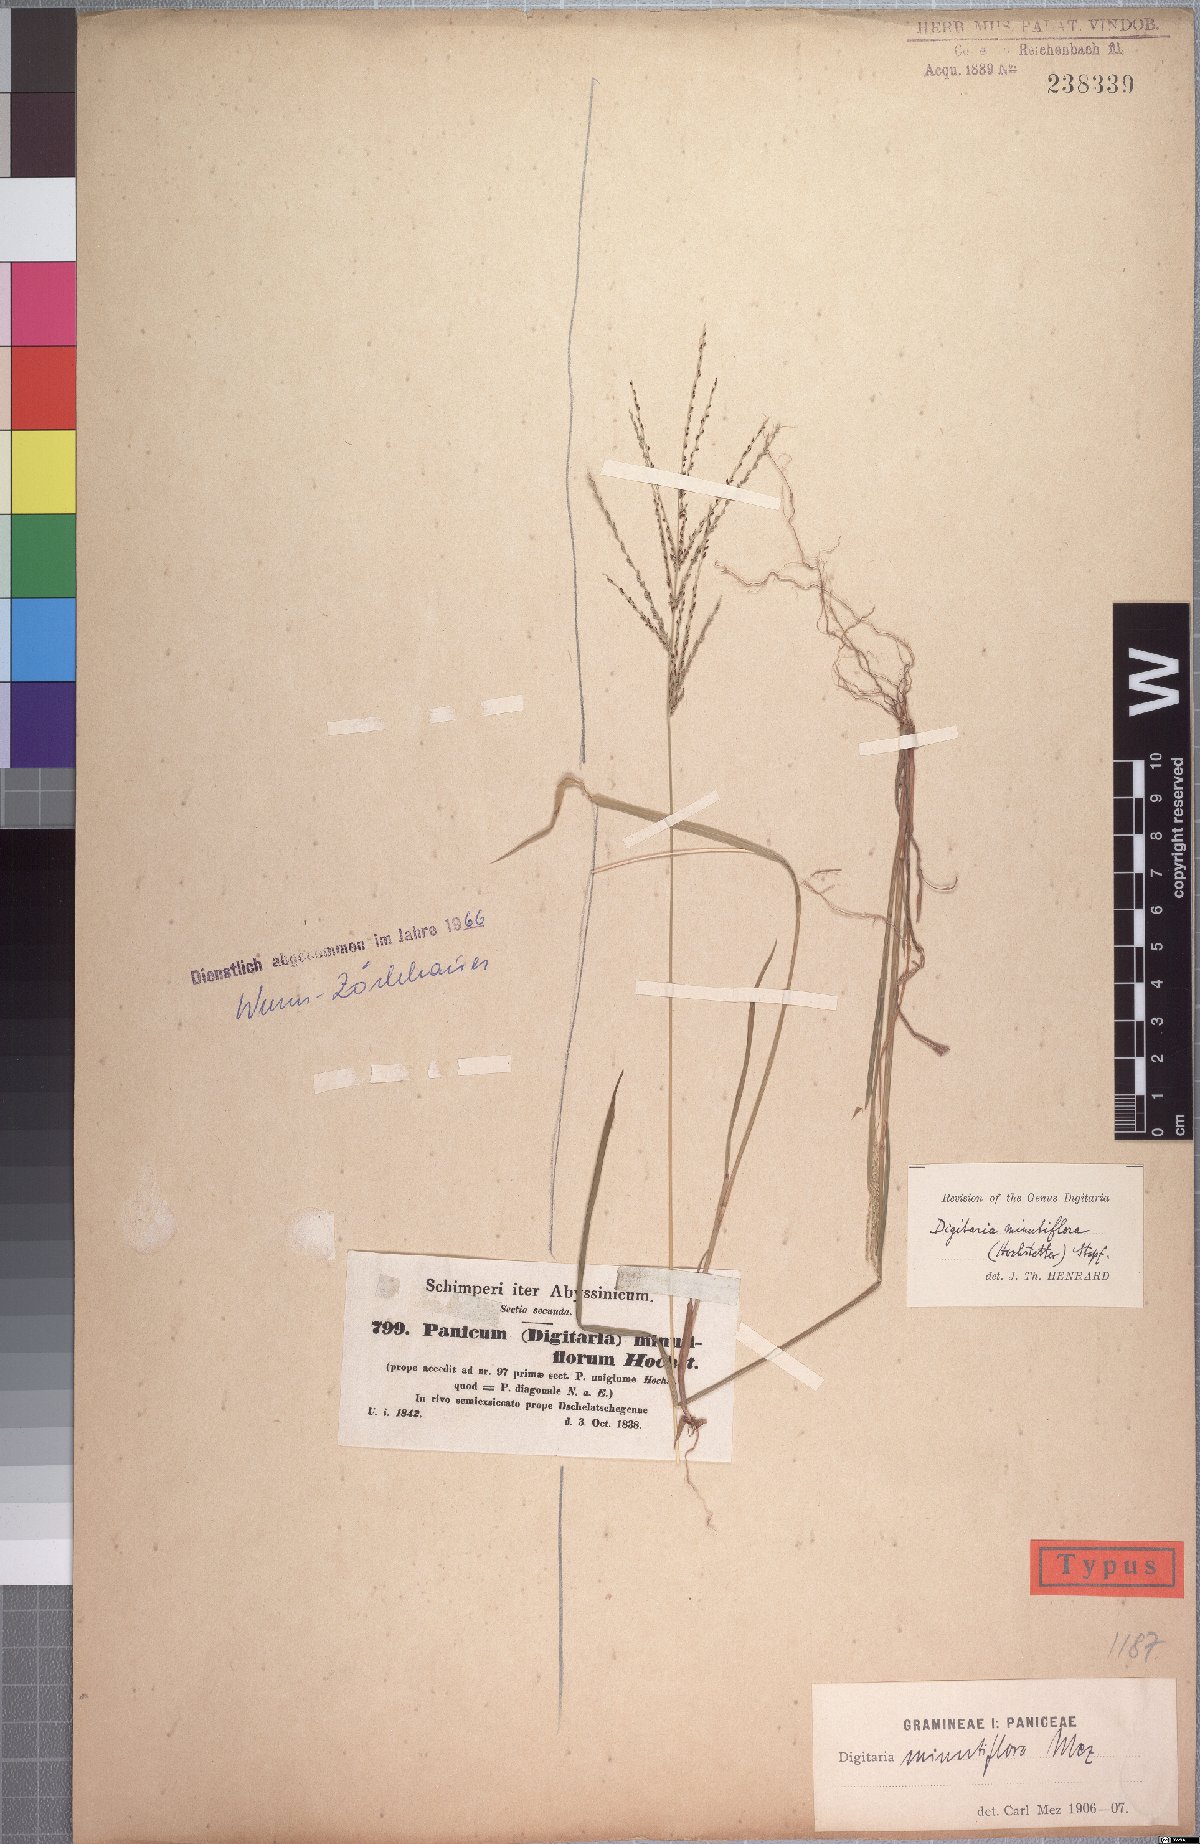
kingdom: Plantae
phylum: Tracheophyta
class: Liliopsida
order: Poales
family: Poaceae
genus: Digitaria
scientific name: Digitaria pseudodiagonalis
